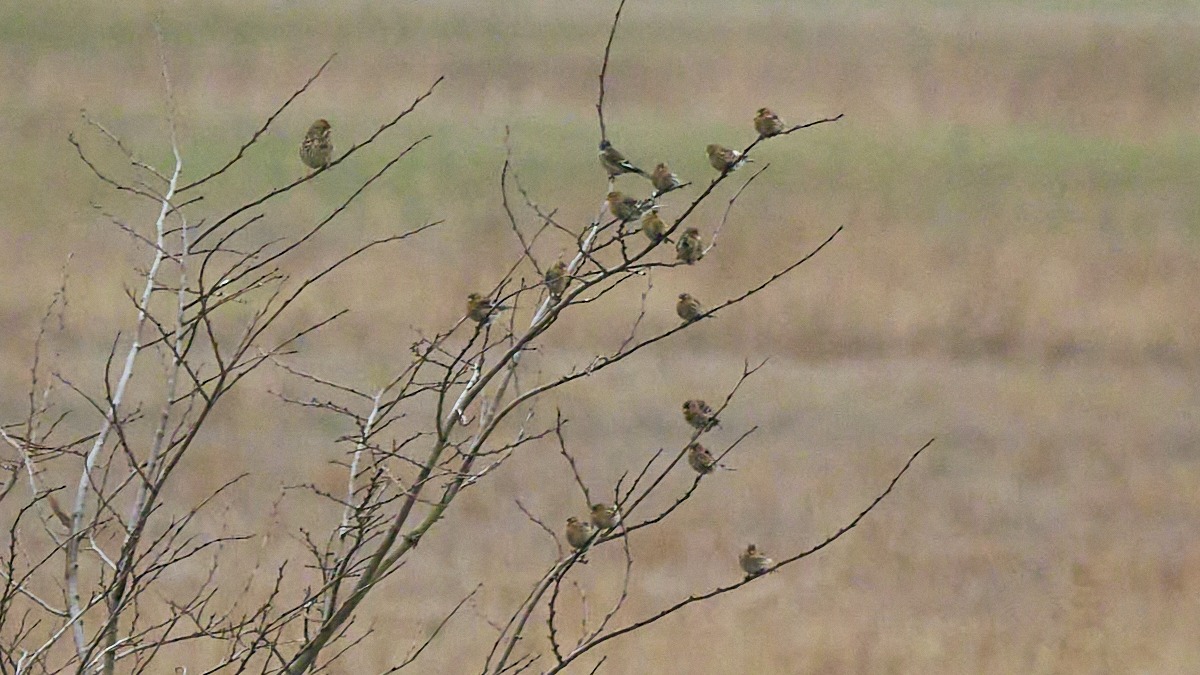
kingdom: Animalia
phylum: Chordata
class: Aves
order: Passeriformes
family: Fringillidae
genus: Linaria
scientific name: Linaria flavirostris
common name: Bjergirisk
